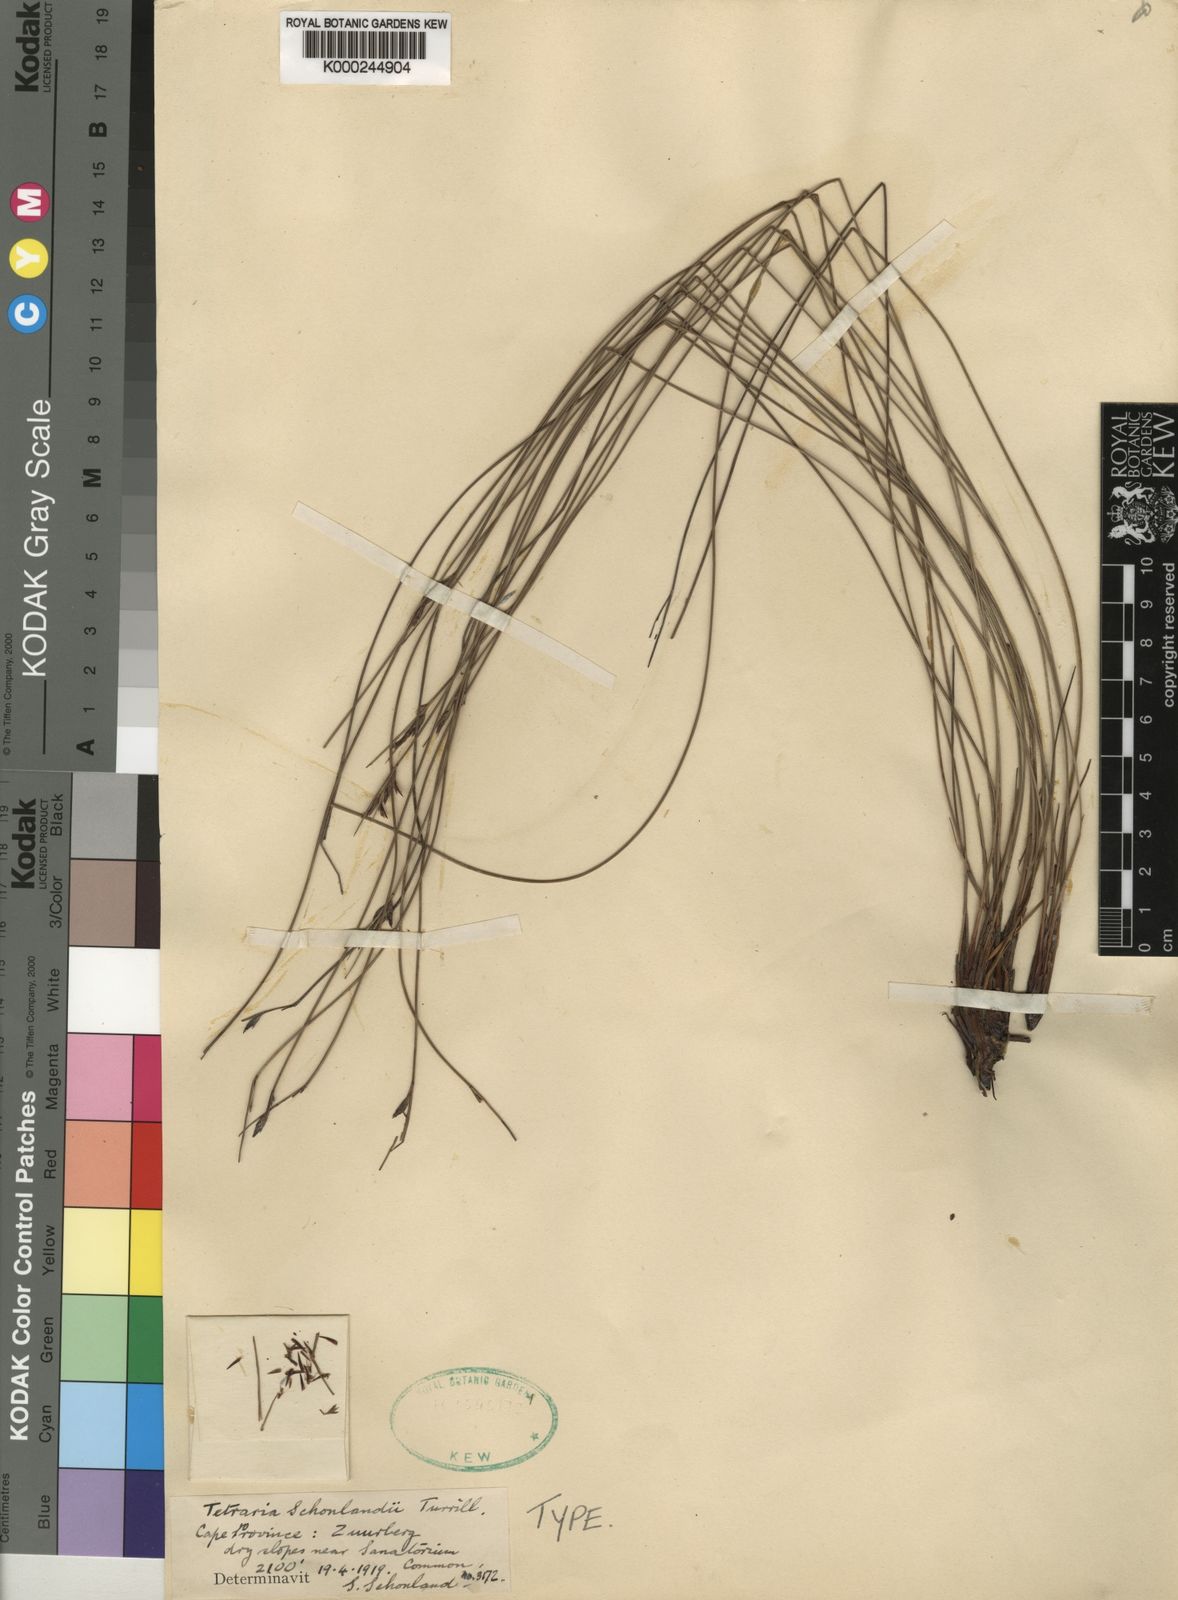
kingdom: Plantae
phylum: Tracheophyta
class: Liliopsida
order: Poales
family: Cyperaceae
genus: Schoenus
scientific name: Schoenus
